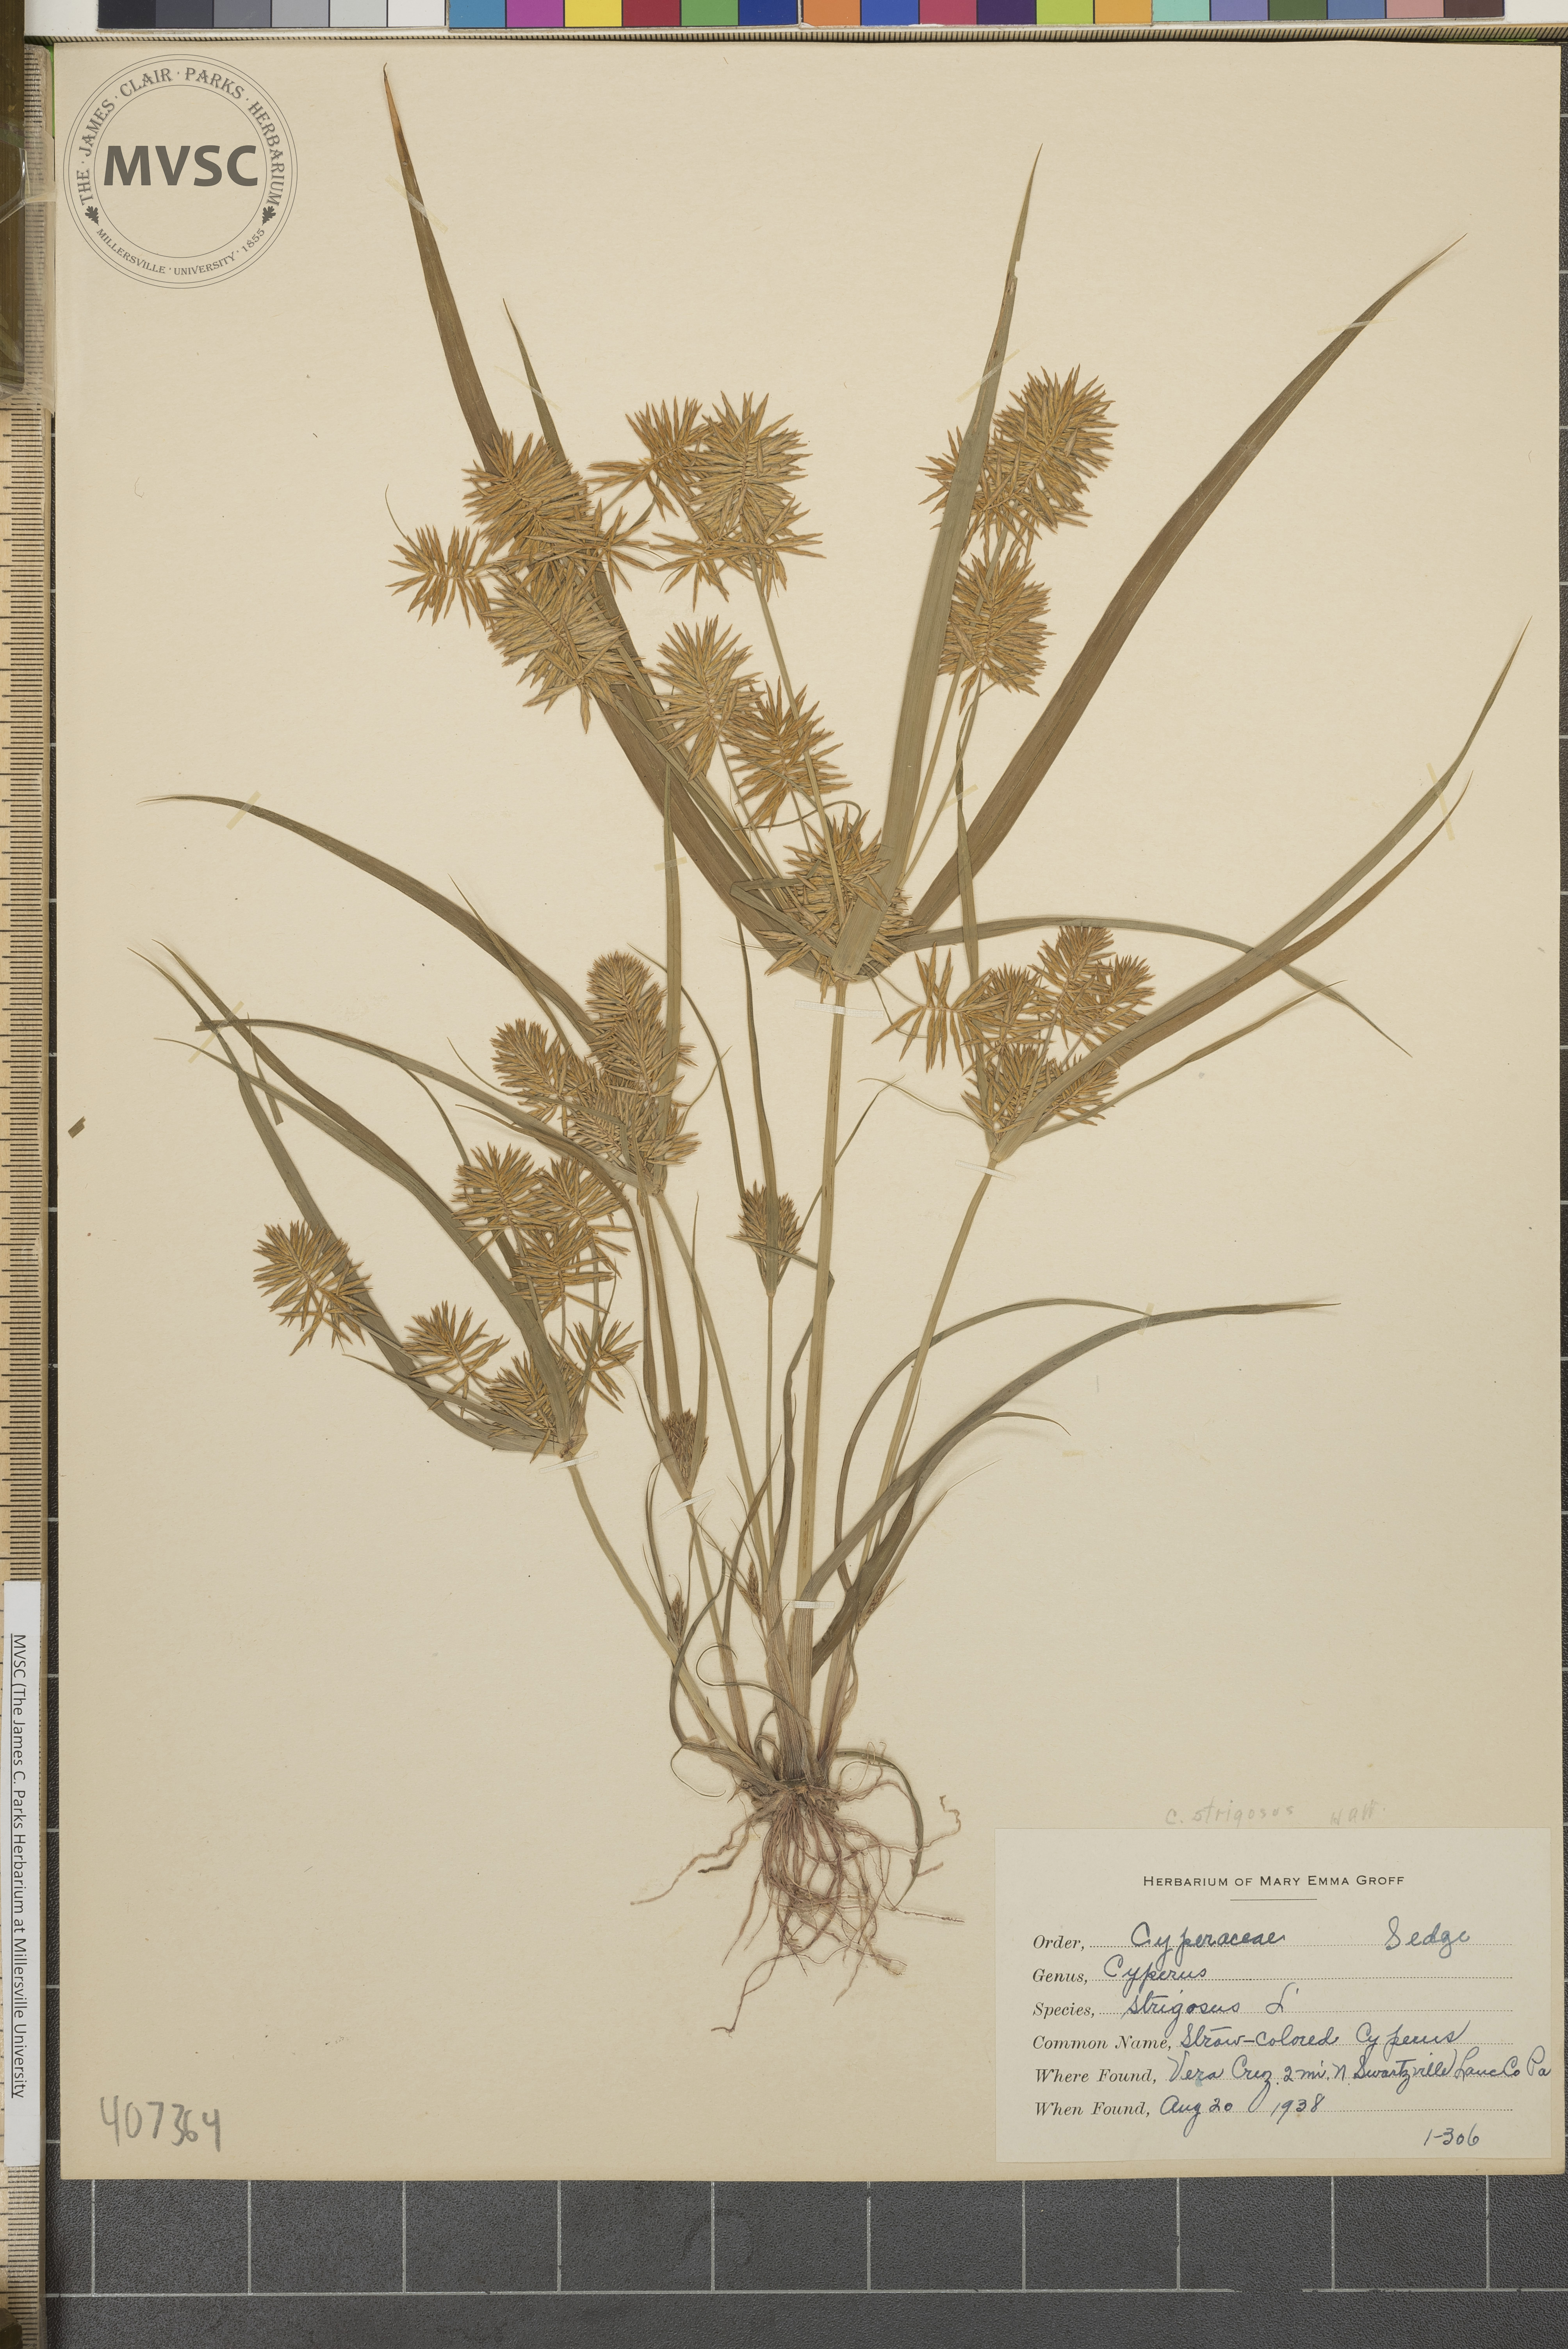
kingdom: Plantae
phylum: Tracheophyta
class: Liliopsida
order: Poales
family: Cyperaceae
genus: Cyperus
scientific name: Cyperus strigosus
